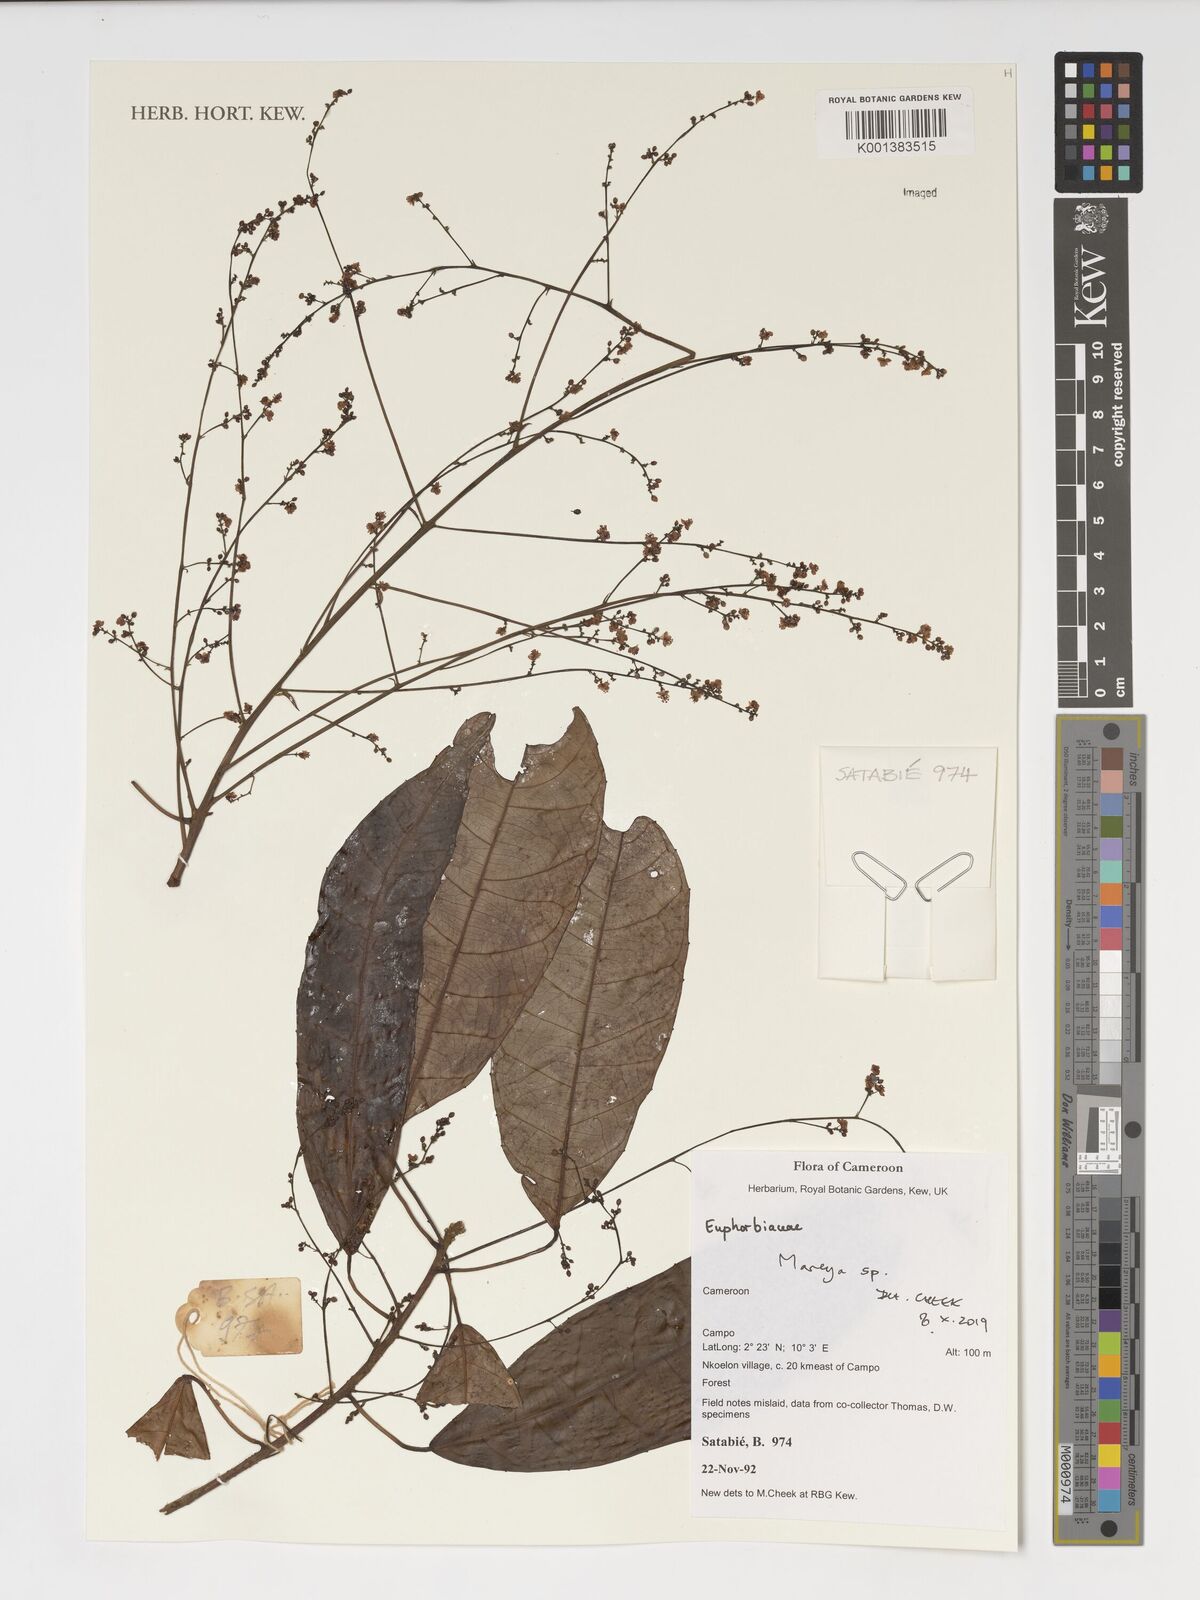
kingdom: Plantae
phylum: Tracheophyta
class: Magnoliopsida
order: Malpighiales
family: Euphorbiaceae
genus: Mareya
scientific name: Mareya
